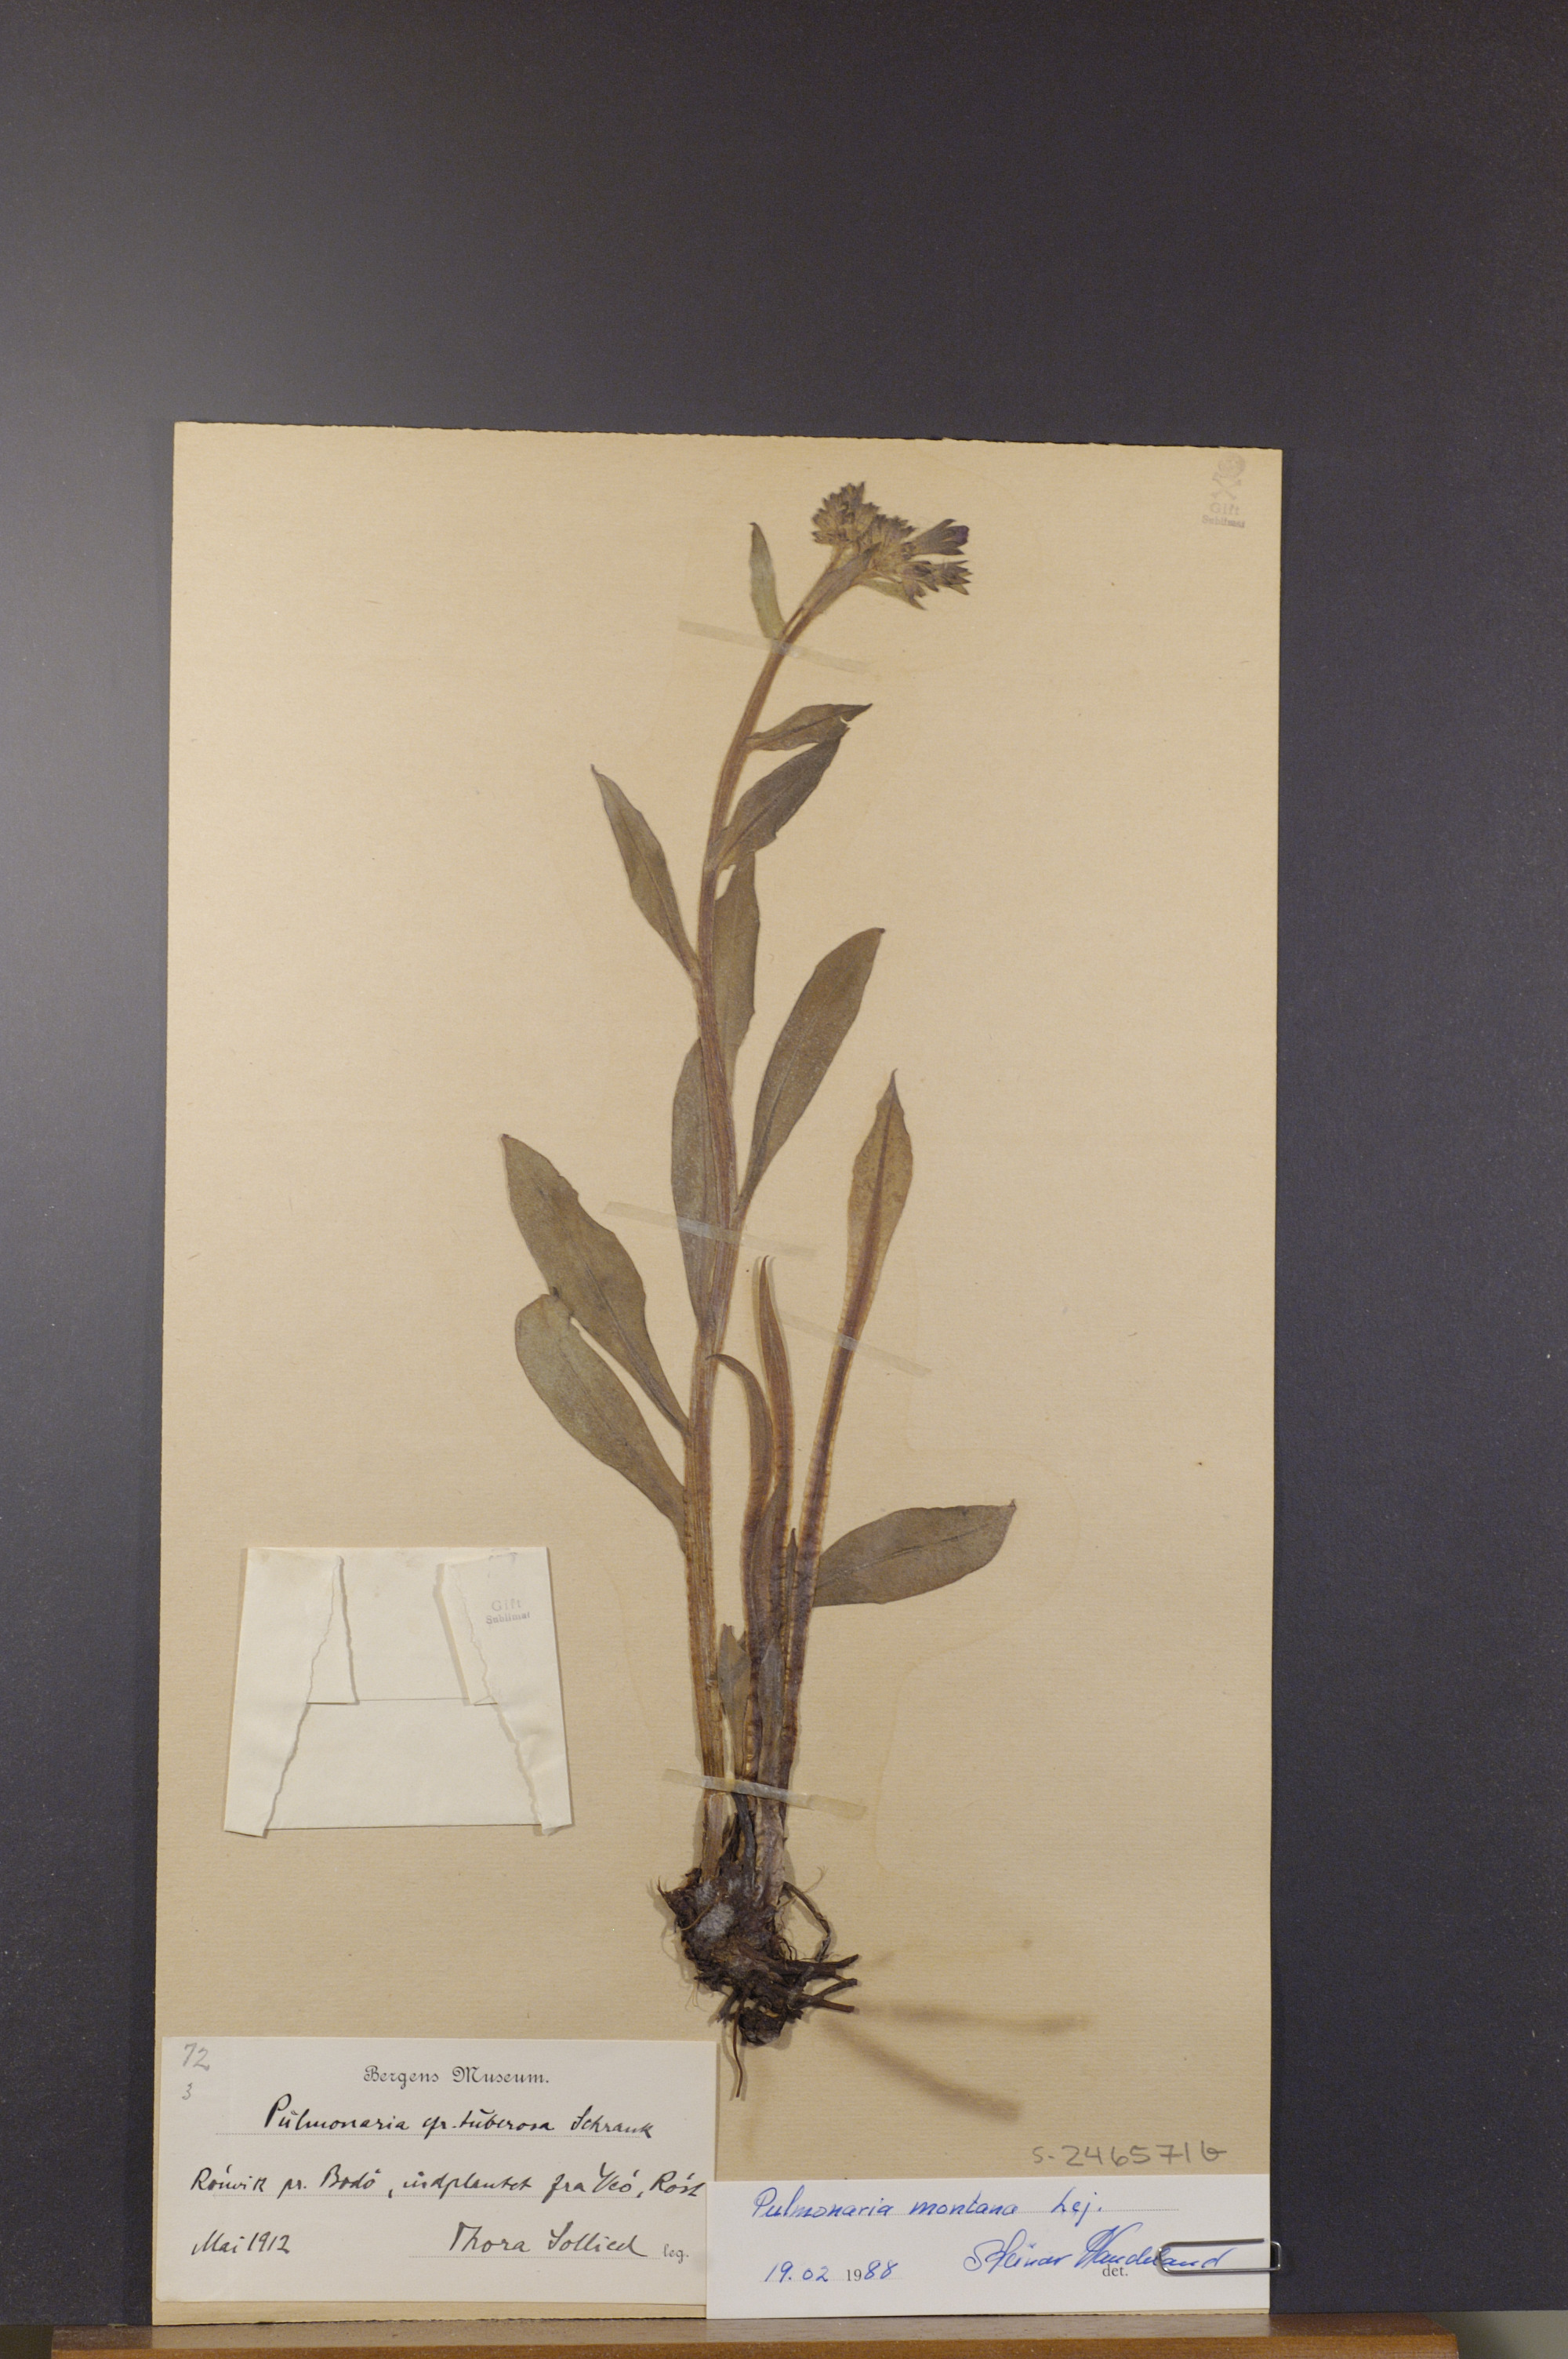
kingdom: Plantae
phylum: Tracheophyta
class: Magnoliopsida
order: Boraginales
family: Boraginaceae
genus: Pulmonaria
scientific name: Pulmonaria montana
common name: Mountain lungwort
